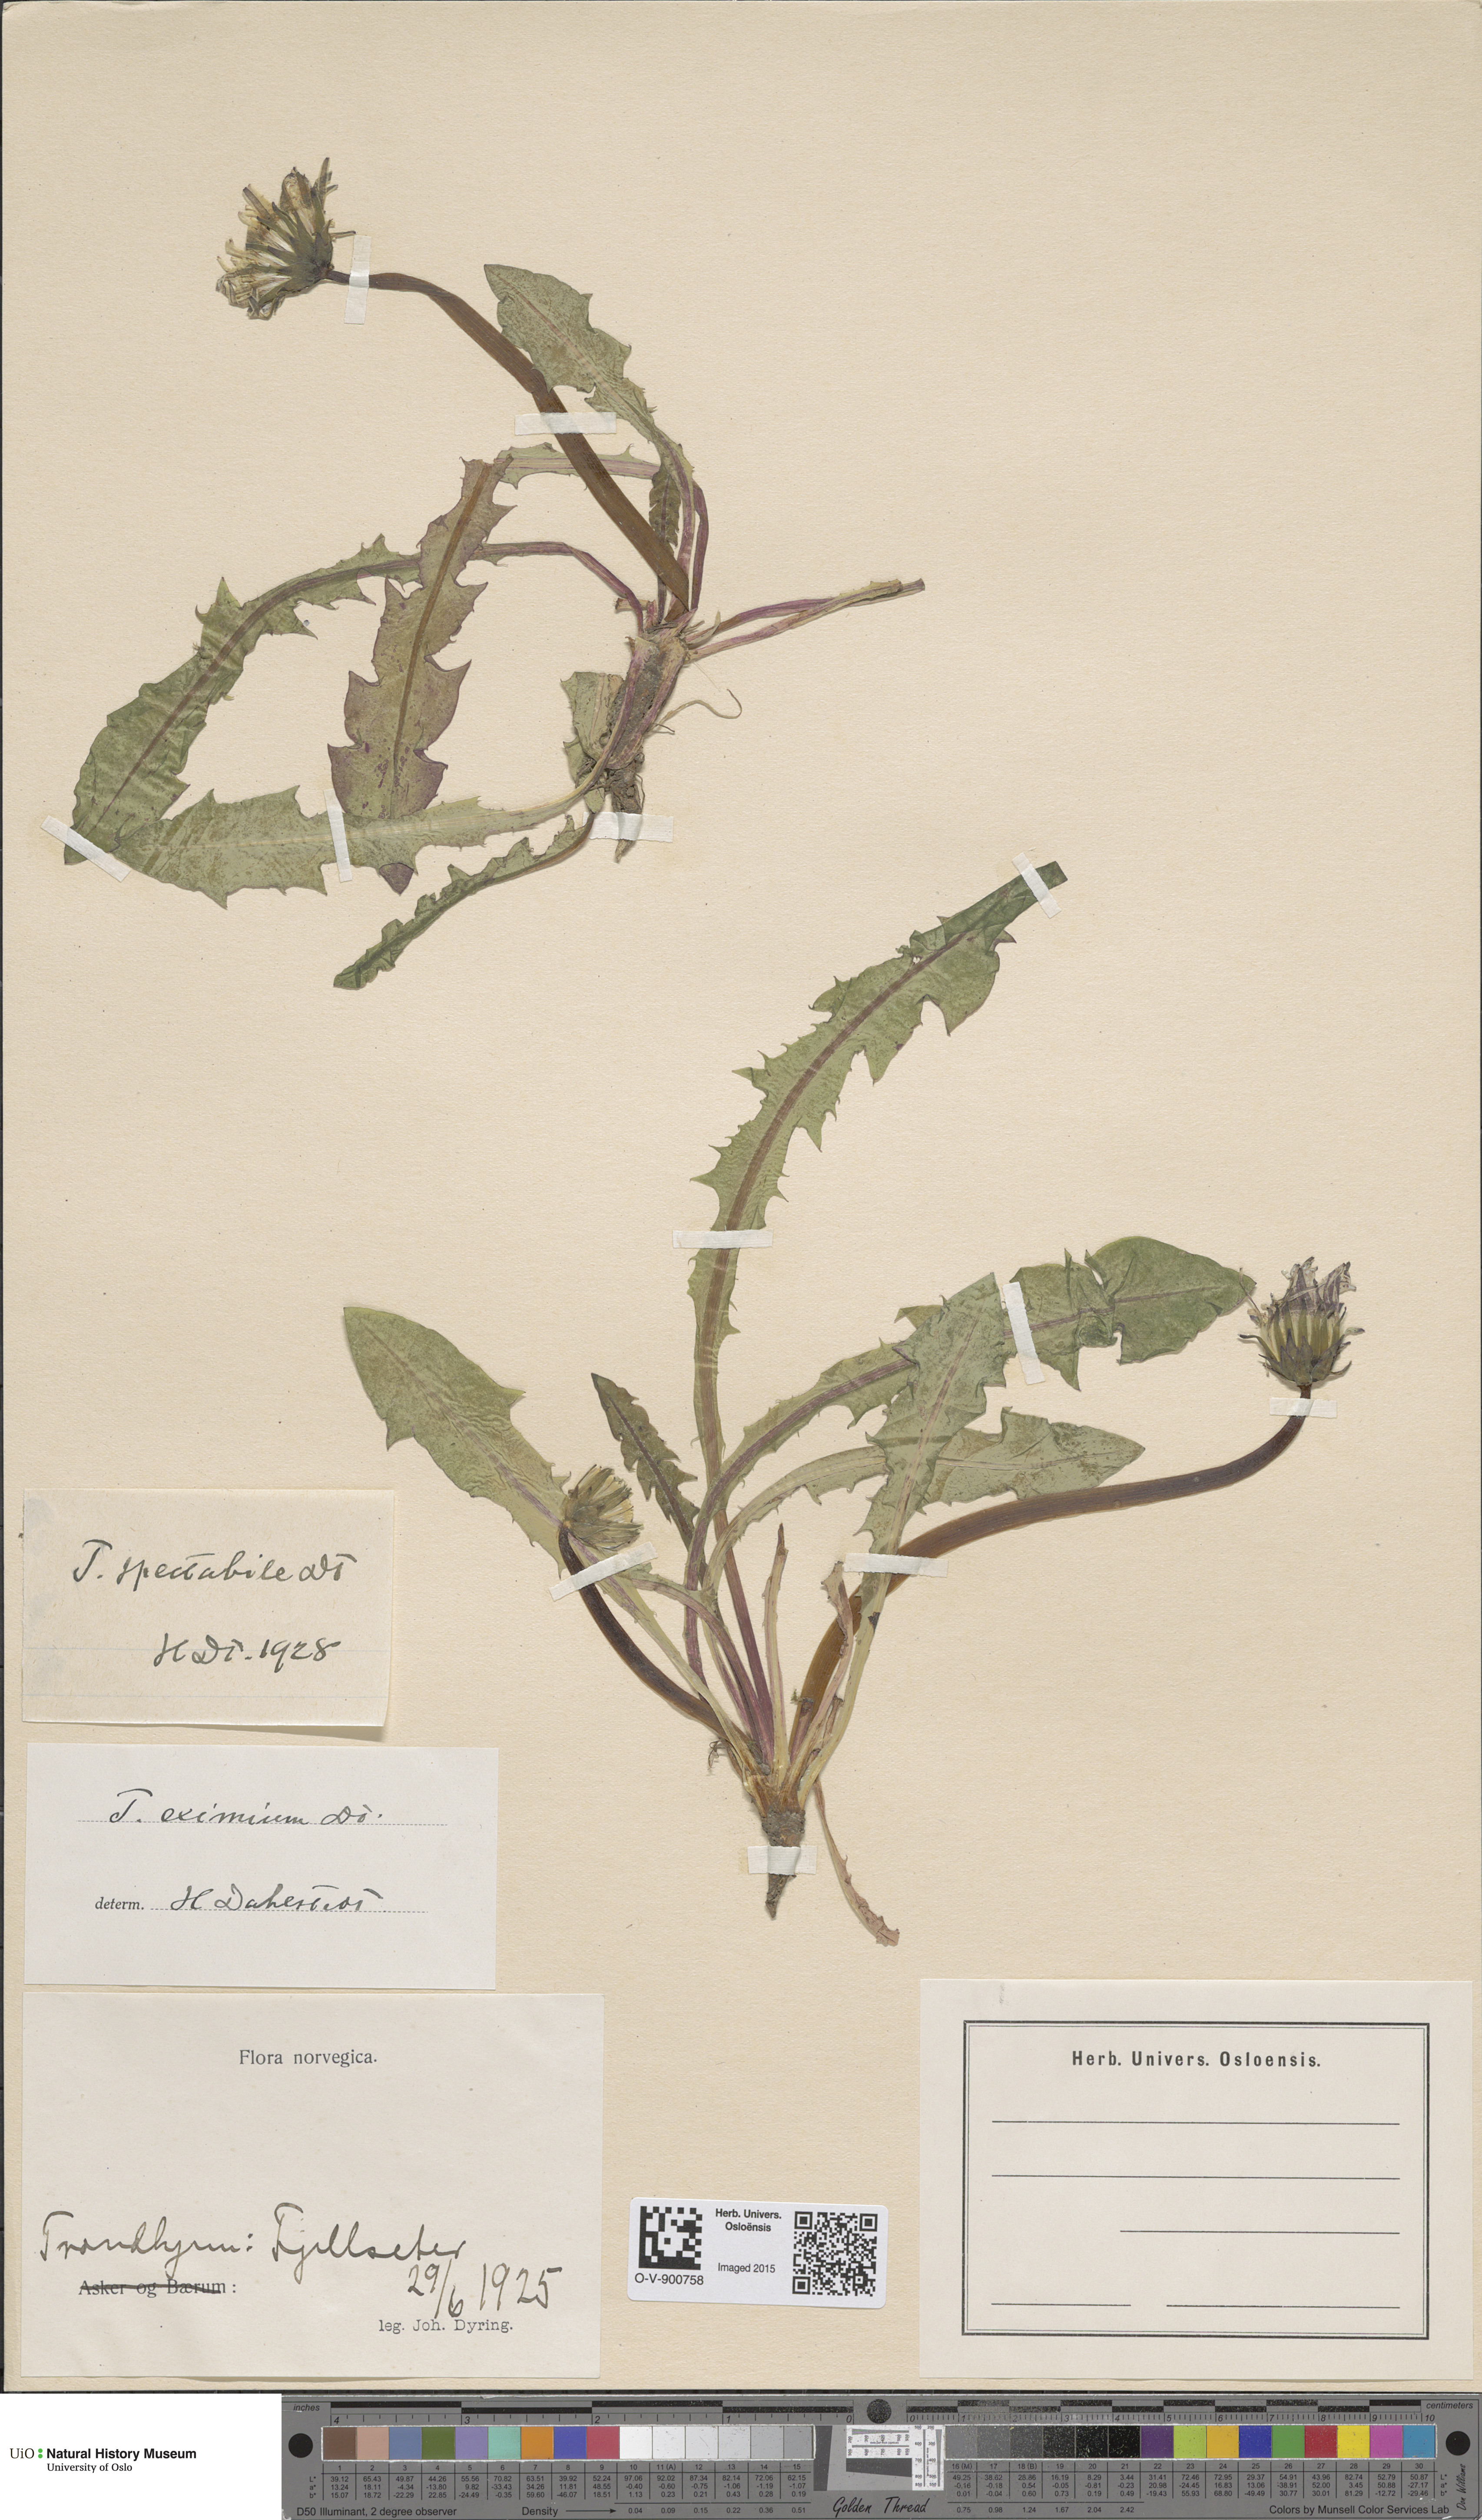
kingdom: Plantae
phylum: Tracheophyta
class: Magnoliopsida
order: Asterales
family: Asteraceae
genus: Taraxacum
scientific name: Taraxacum spectabile
